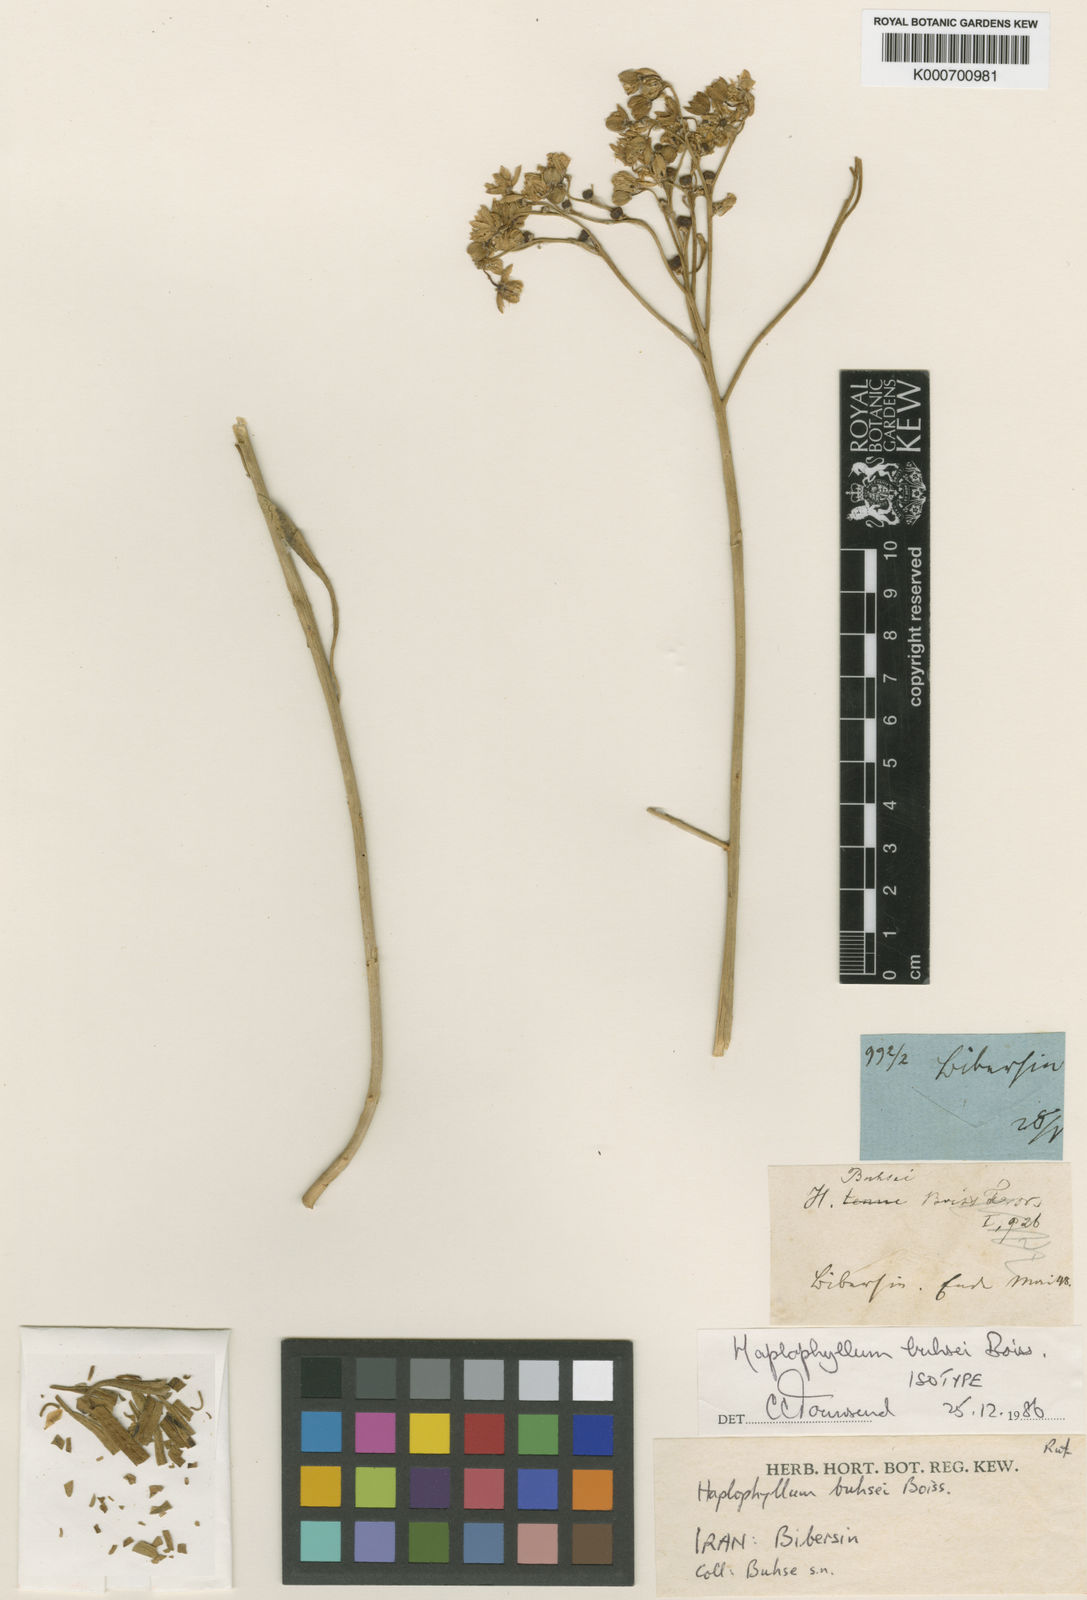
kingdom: Plantae
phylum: Tracheophyta
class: Magnoliopsida
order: Sapindales
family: Rutaceae
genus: Haplophyllum
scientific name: Haplophyllum buhsei
